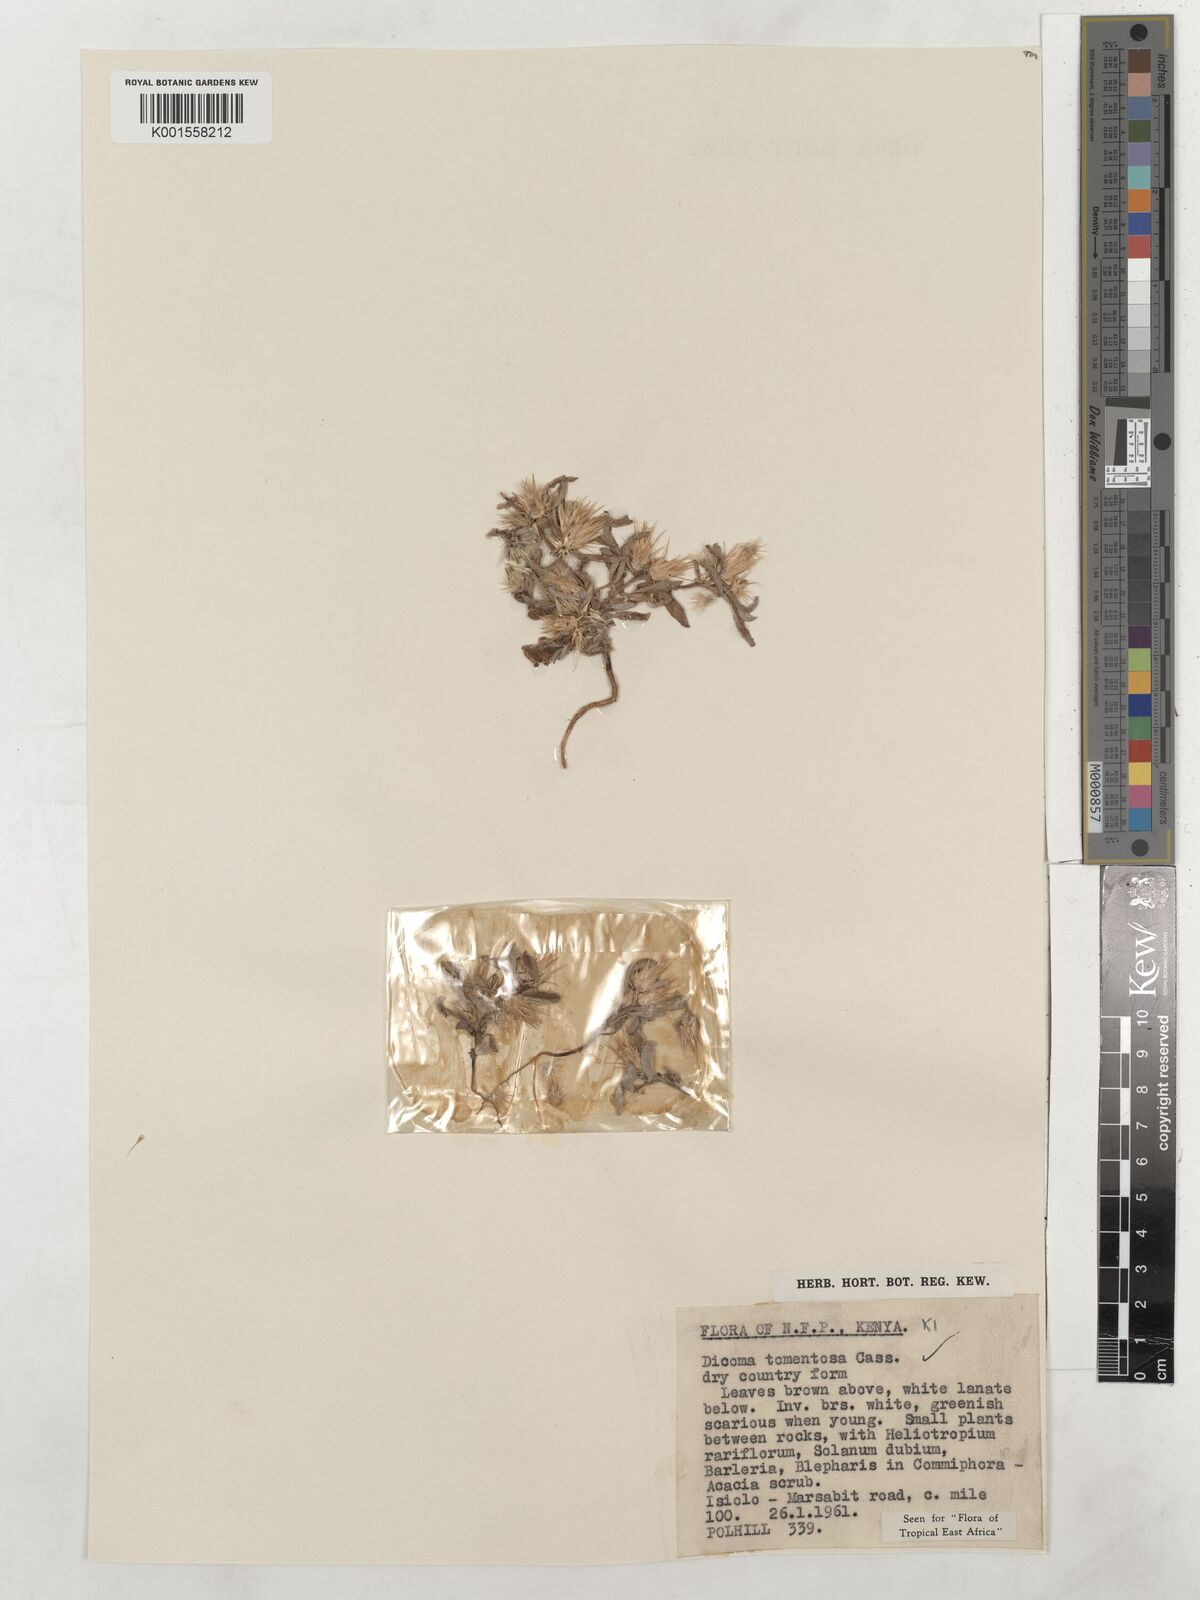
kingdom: Plantae
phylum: Tracheophyta
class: Magnoliopsida
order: Asterales
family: Asteraceae
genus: Dicoma
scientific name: Dicoma tomentosa
